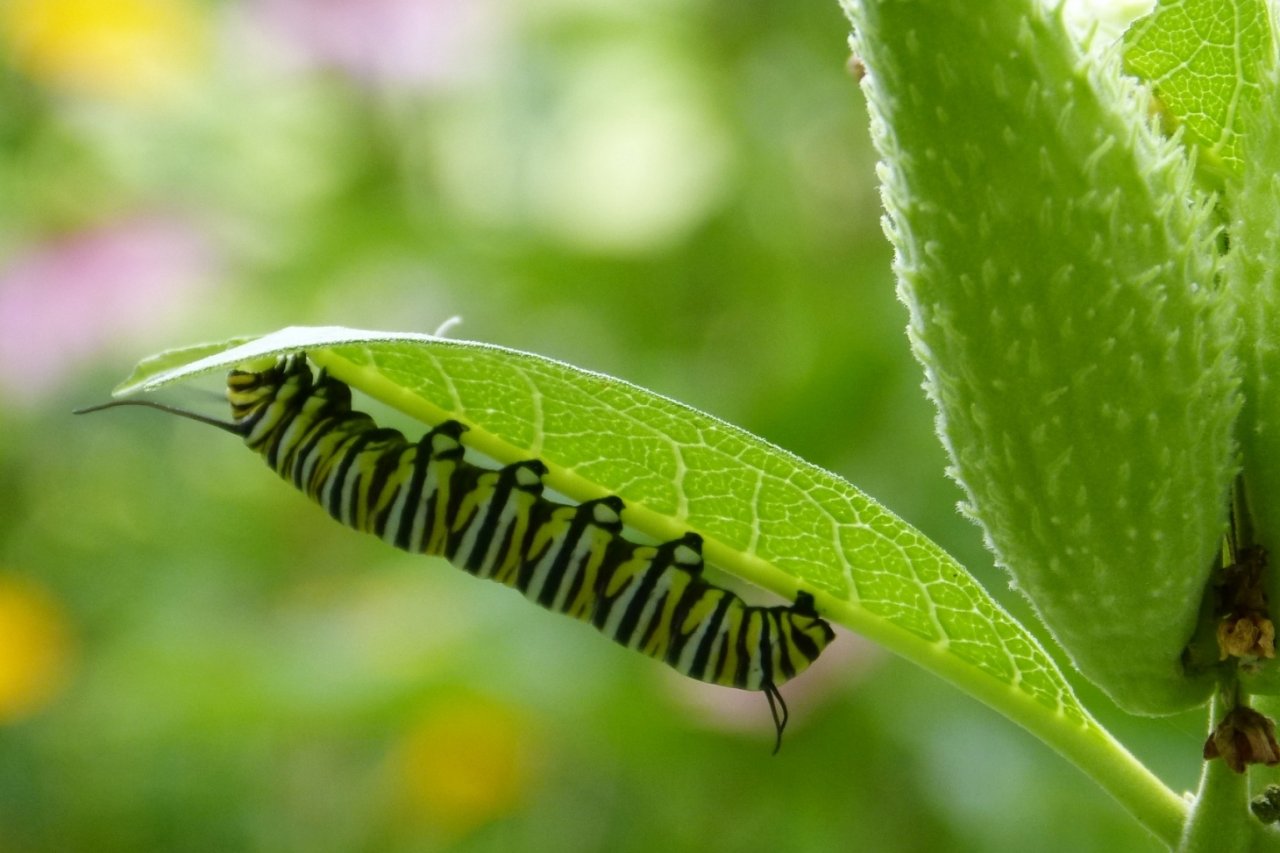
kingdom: Animalia
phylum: Arthropoda
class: Insecta
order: Lepidoptera
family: Nymphalidae
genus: Danaus
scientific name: Danaus plexippus
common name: Monarch
